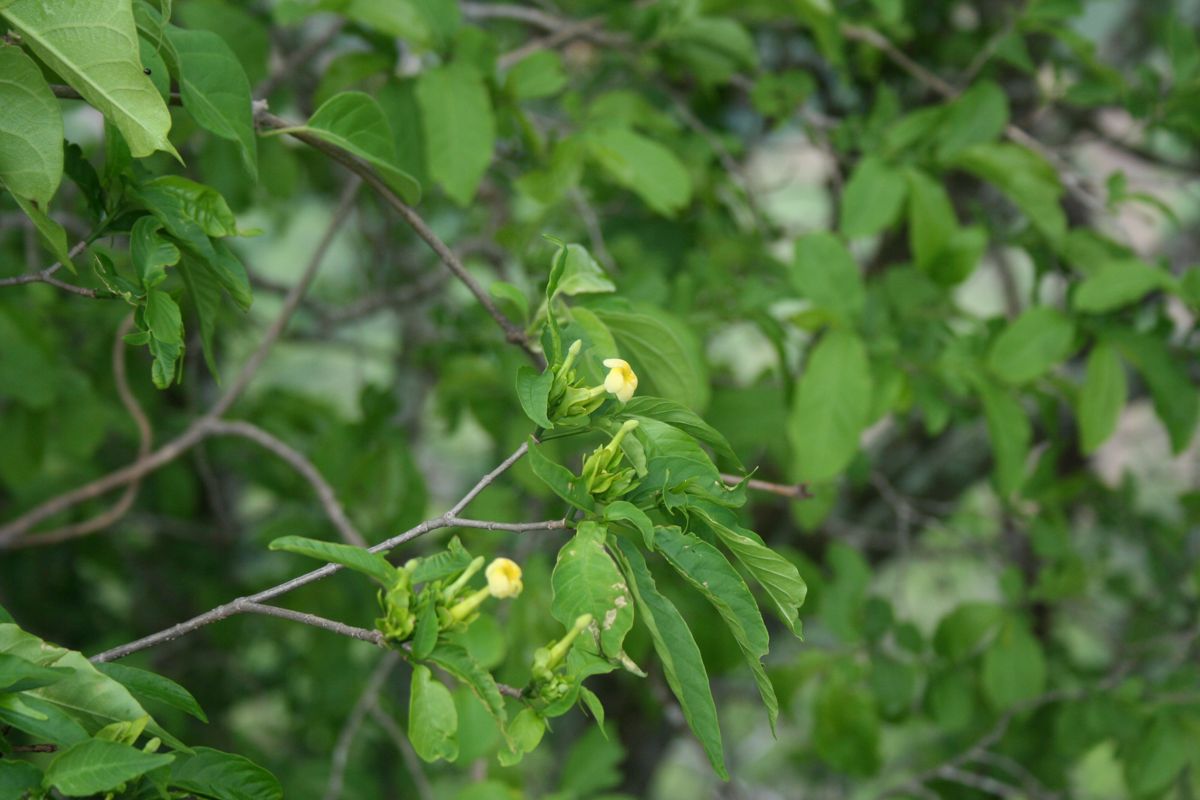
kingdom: Plantae
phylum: Tracheophyta
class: Magnoliopsida
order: Gentianales
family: Apocynaceae
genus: Tabernaemontana
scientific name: Tabernaemontana eubracteata
